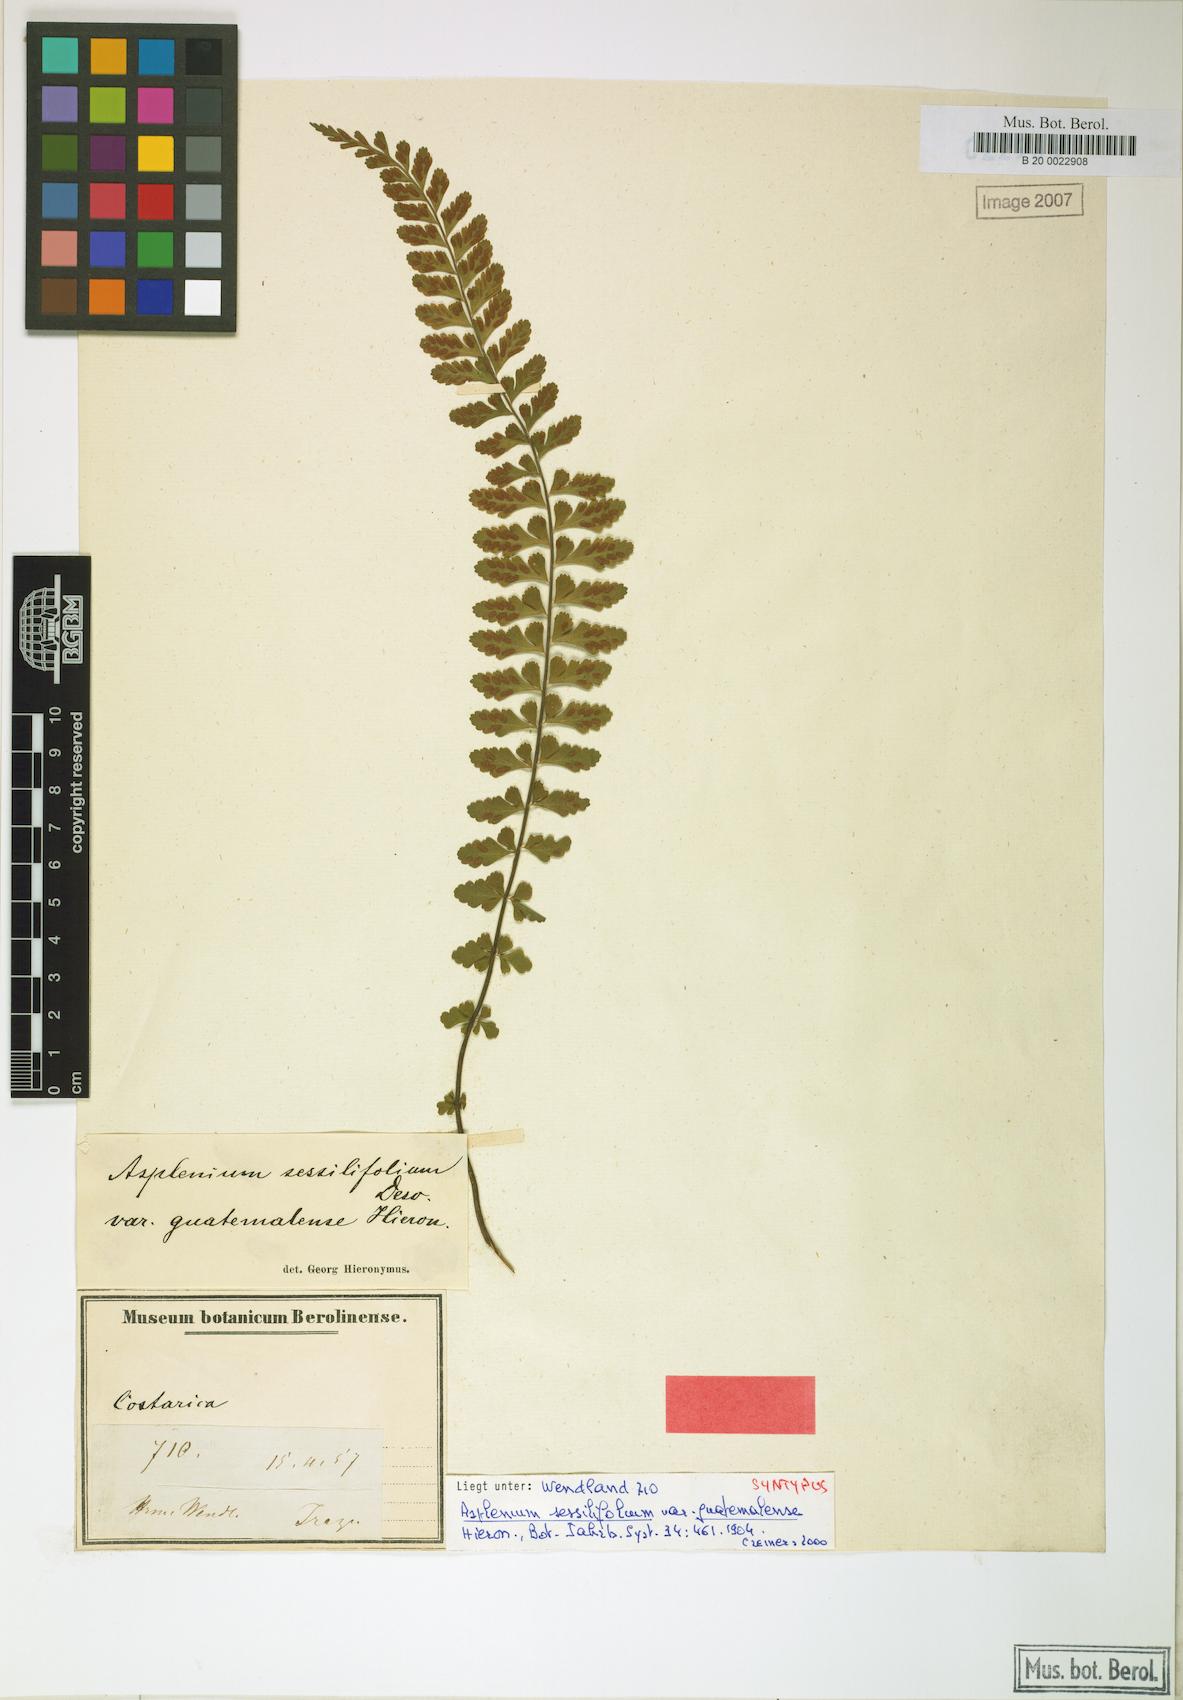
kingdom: Plantae
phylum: Tracheophyta
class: Polypodiopsida
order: Polypodiales
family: Aspleniaceae
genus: Asplenium
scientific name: Asplenium sessilifolium
